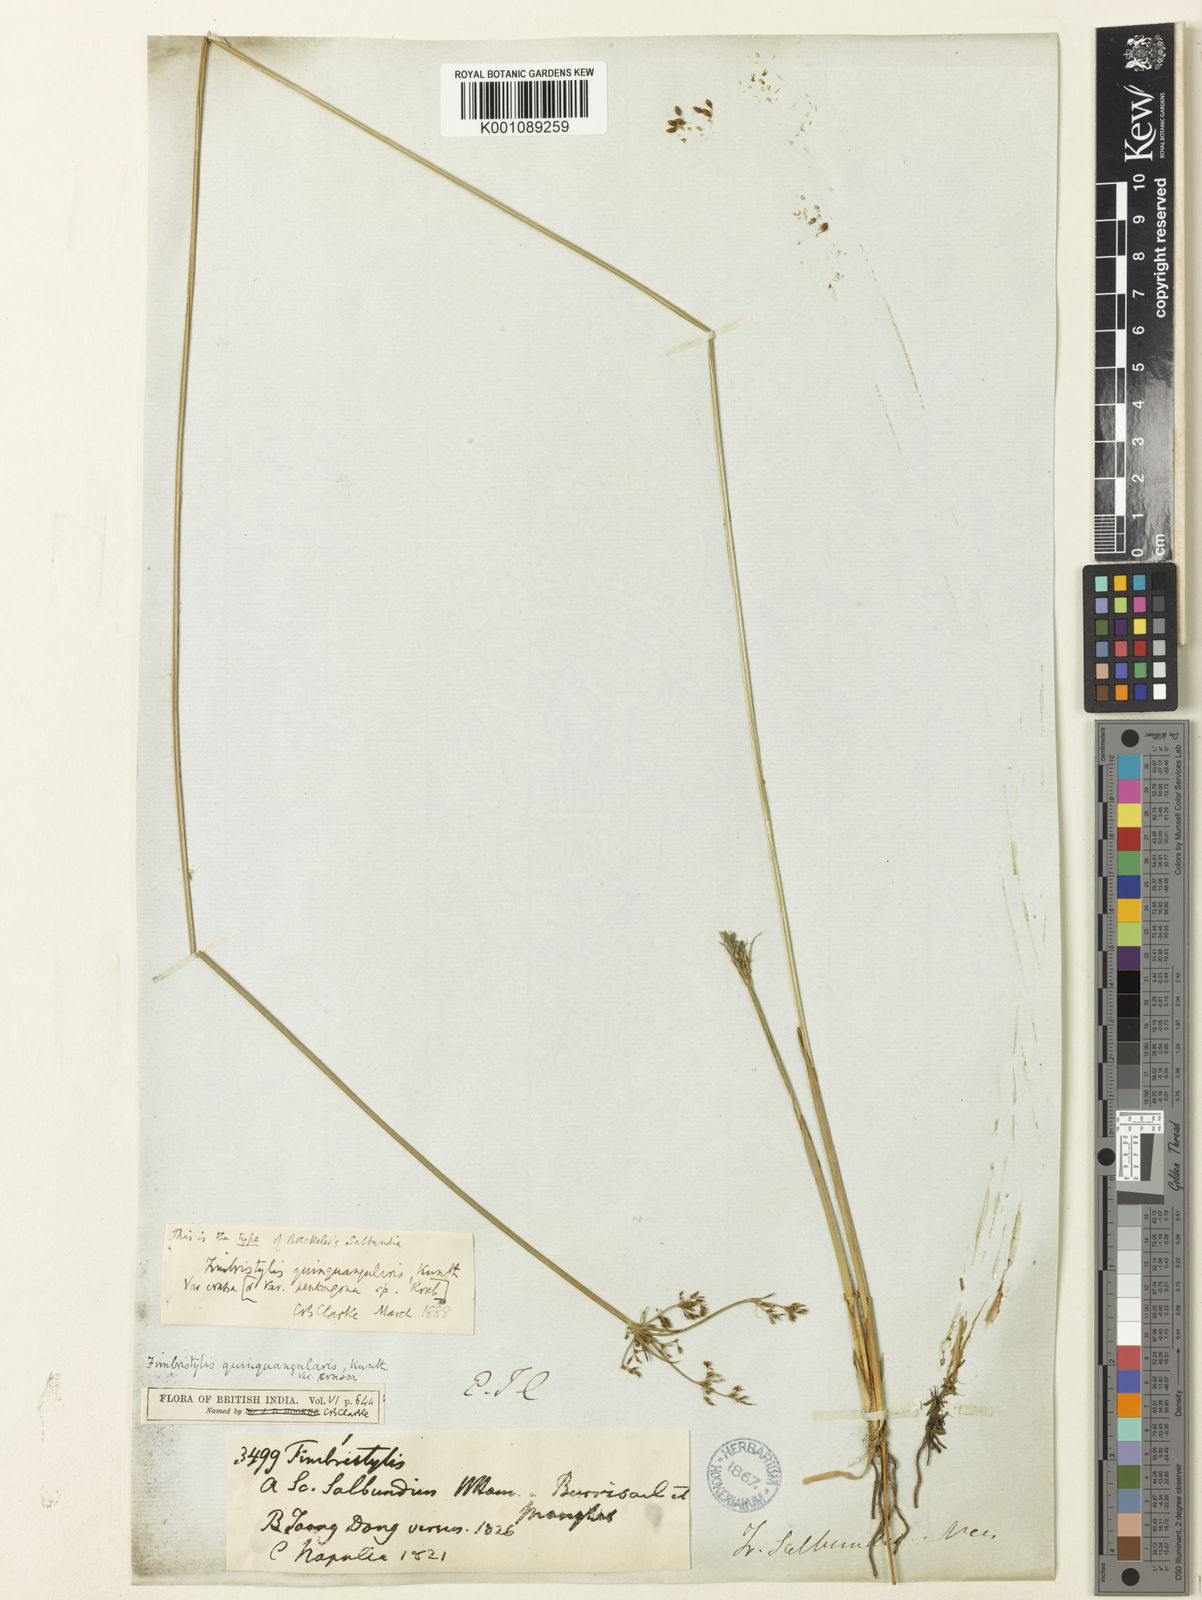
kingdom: Plantae
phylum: Tracheophyta
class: Liliopsida
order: Poales
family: Cyperaceae
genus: Fimbristylis
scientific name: Fimbristylis quinquangularis
